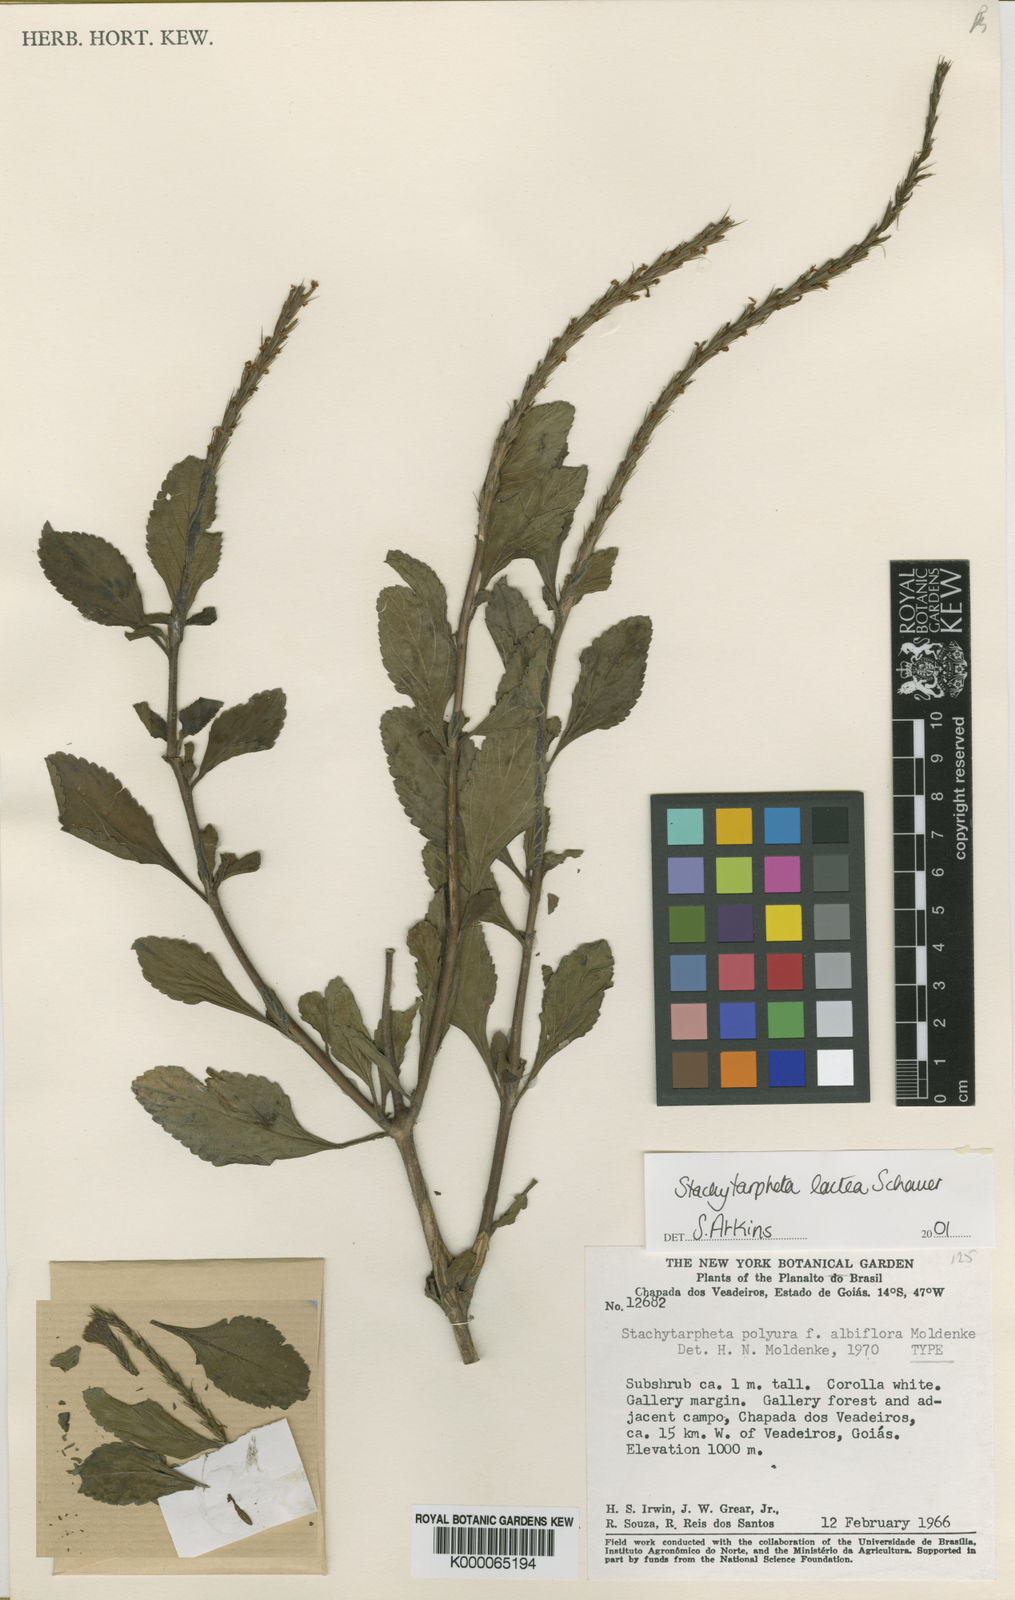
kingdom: Plantae
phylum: Tracheophyta
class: Magnoliopsida
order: Lamiales
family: Verbenaceae
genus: Stachytarpheta
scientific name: Stachytarpheta polyura
